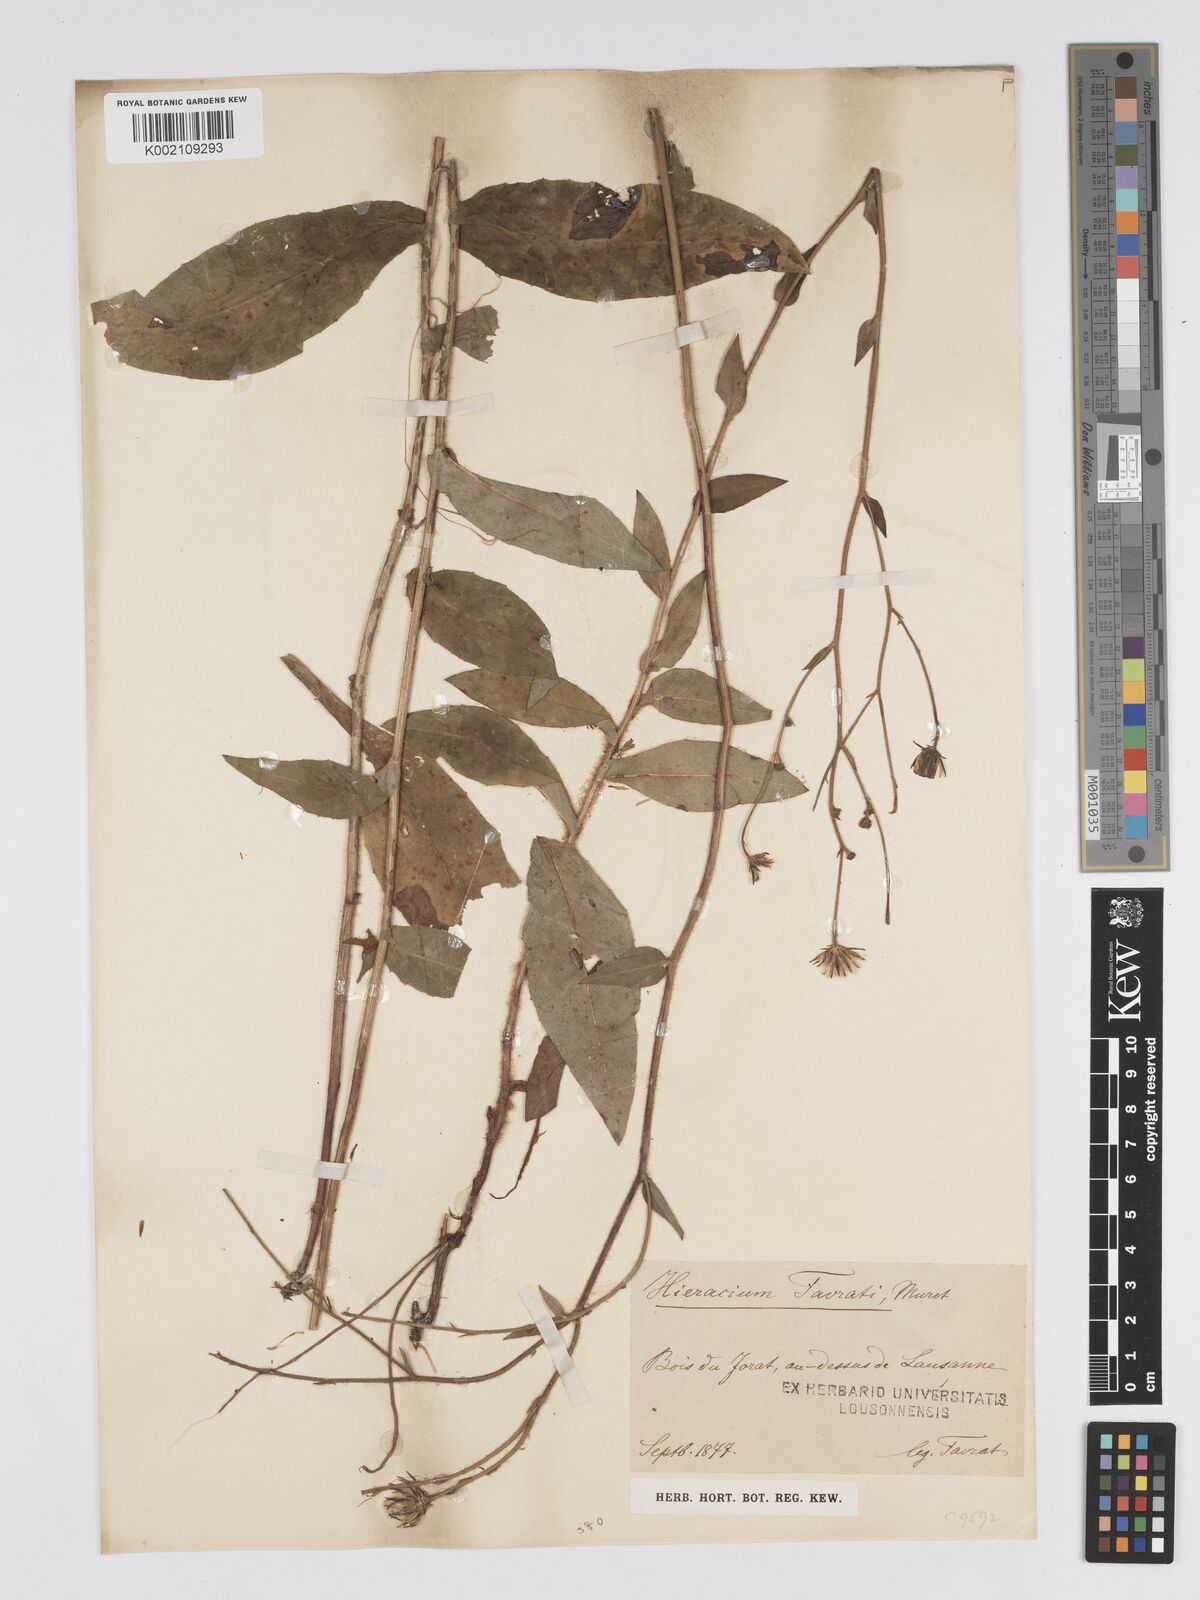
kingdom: Plantae
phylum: Tracheophyta
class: Magnoliopsida
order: Asterales
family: Asteraceae
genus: Hieracium
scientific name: Hieracium favratii
